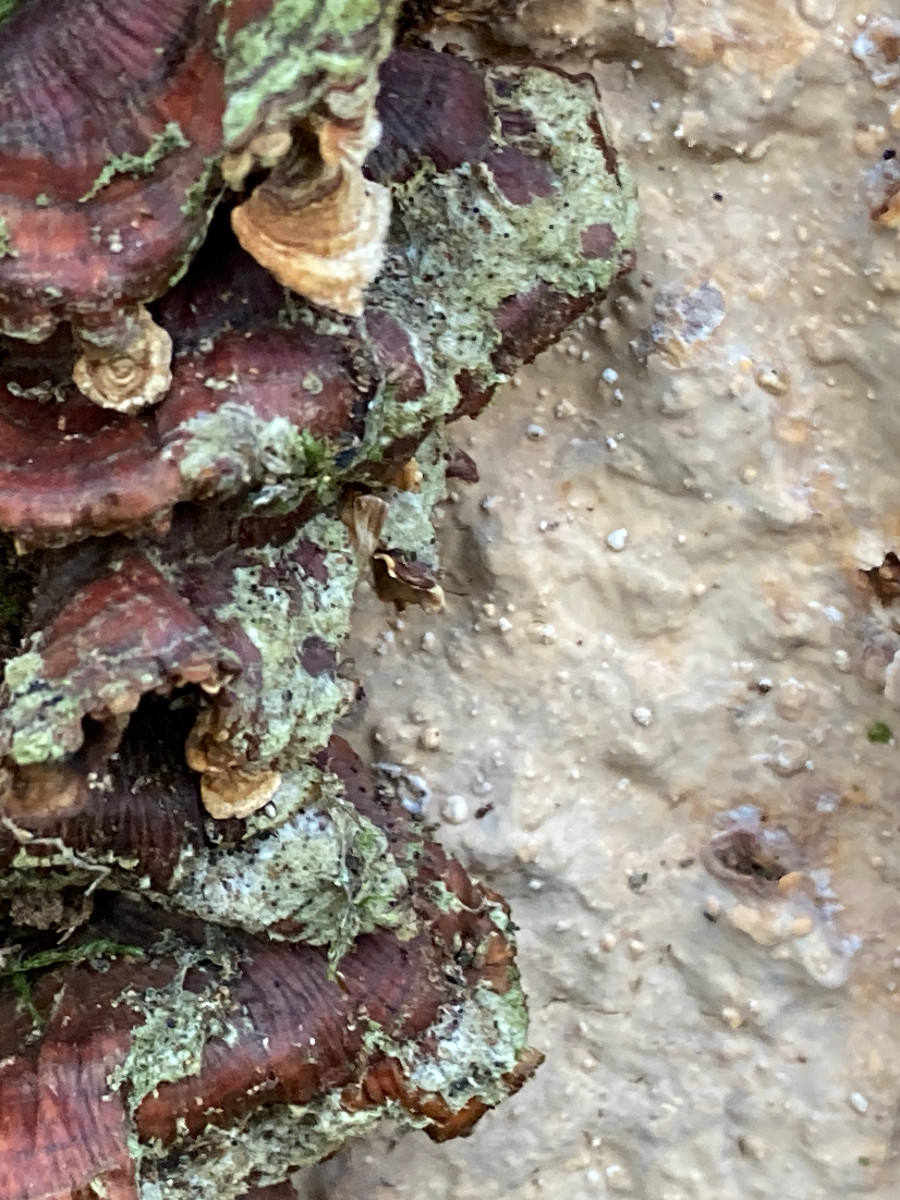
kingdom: Fungi
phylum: Basidiomycota
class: Agaricomycetes
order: Russulales
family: Stereaceae
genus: Stereum
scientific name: Stereum rugosum
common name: rynket lædersvamp
